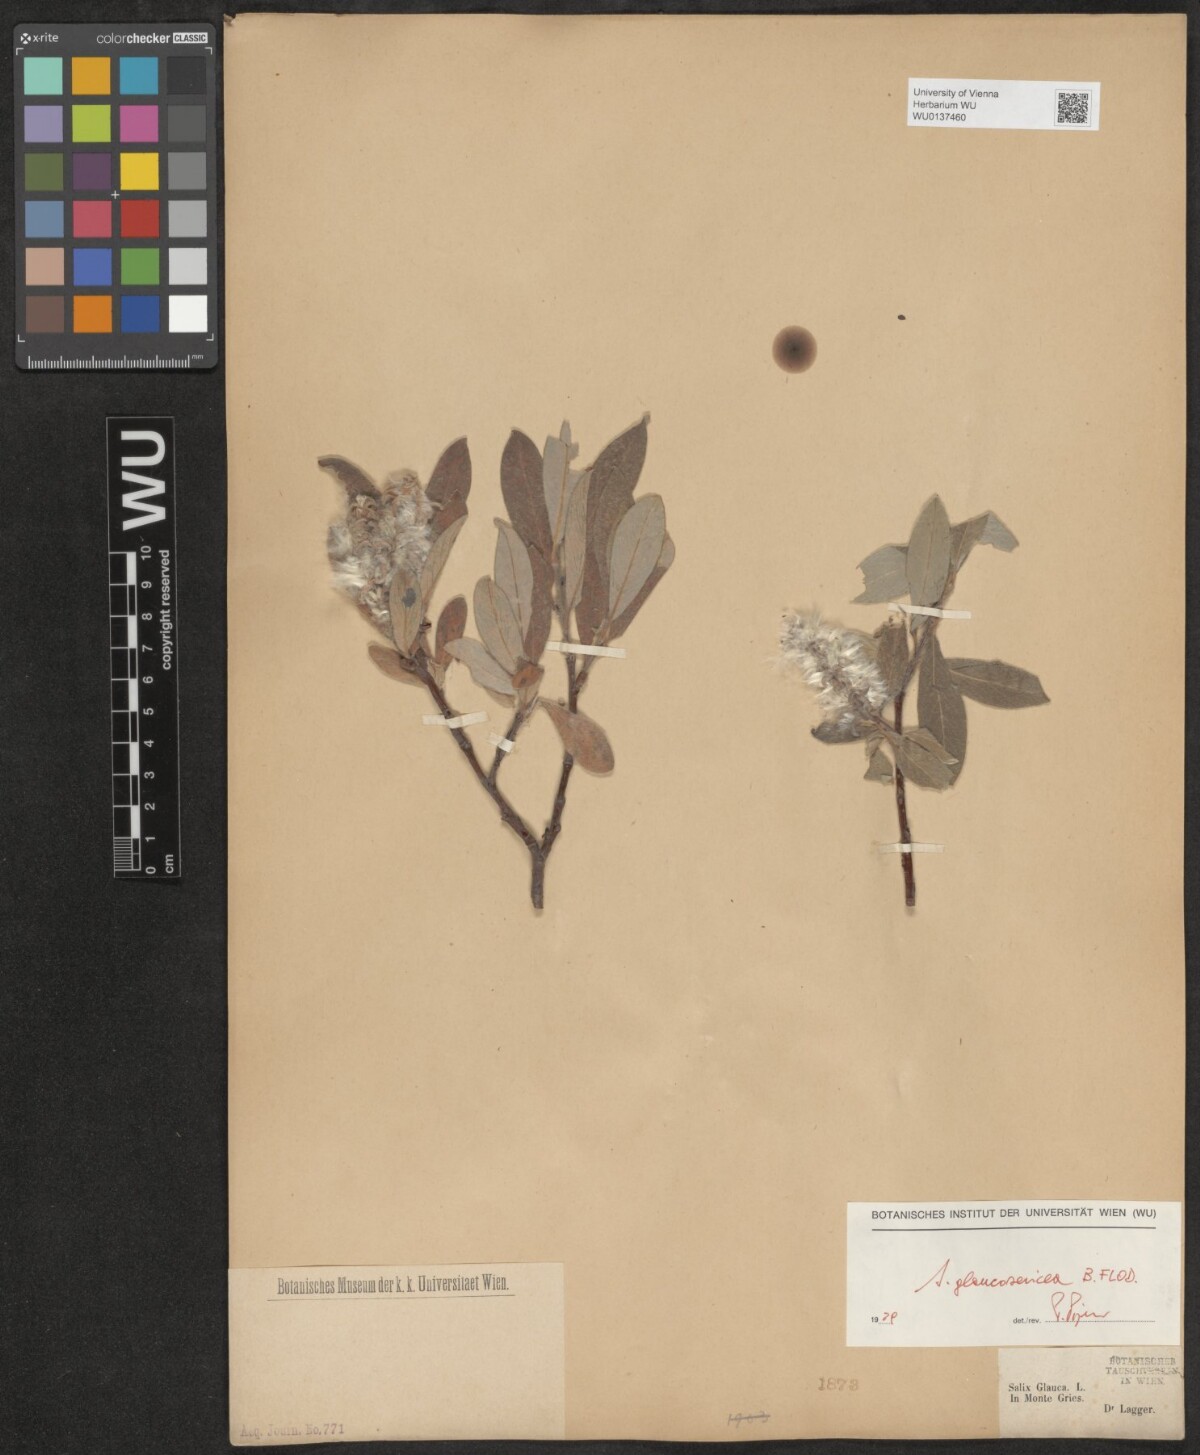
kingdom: Plantae
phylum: Tracheophyta
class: Magnoliopsida
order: Malpighiales
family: Salicaceae
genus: Salix
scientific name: Salix glaucosericea
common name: Alpine gray willow
